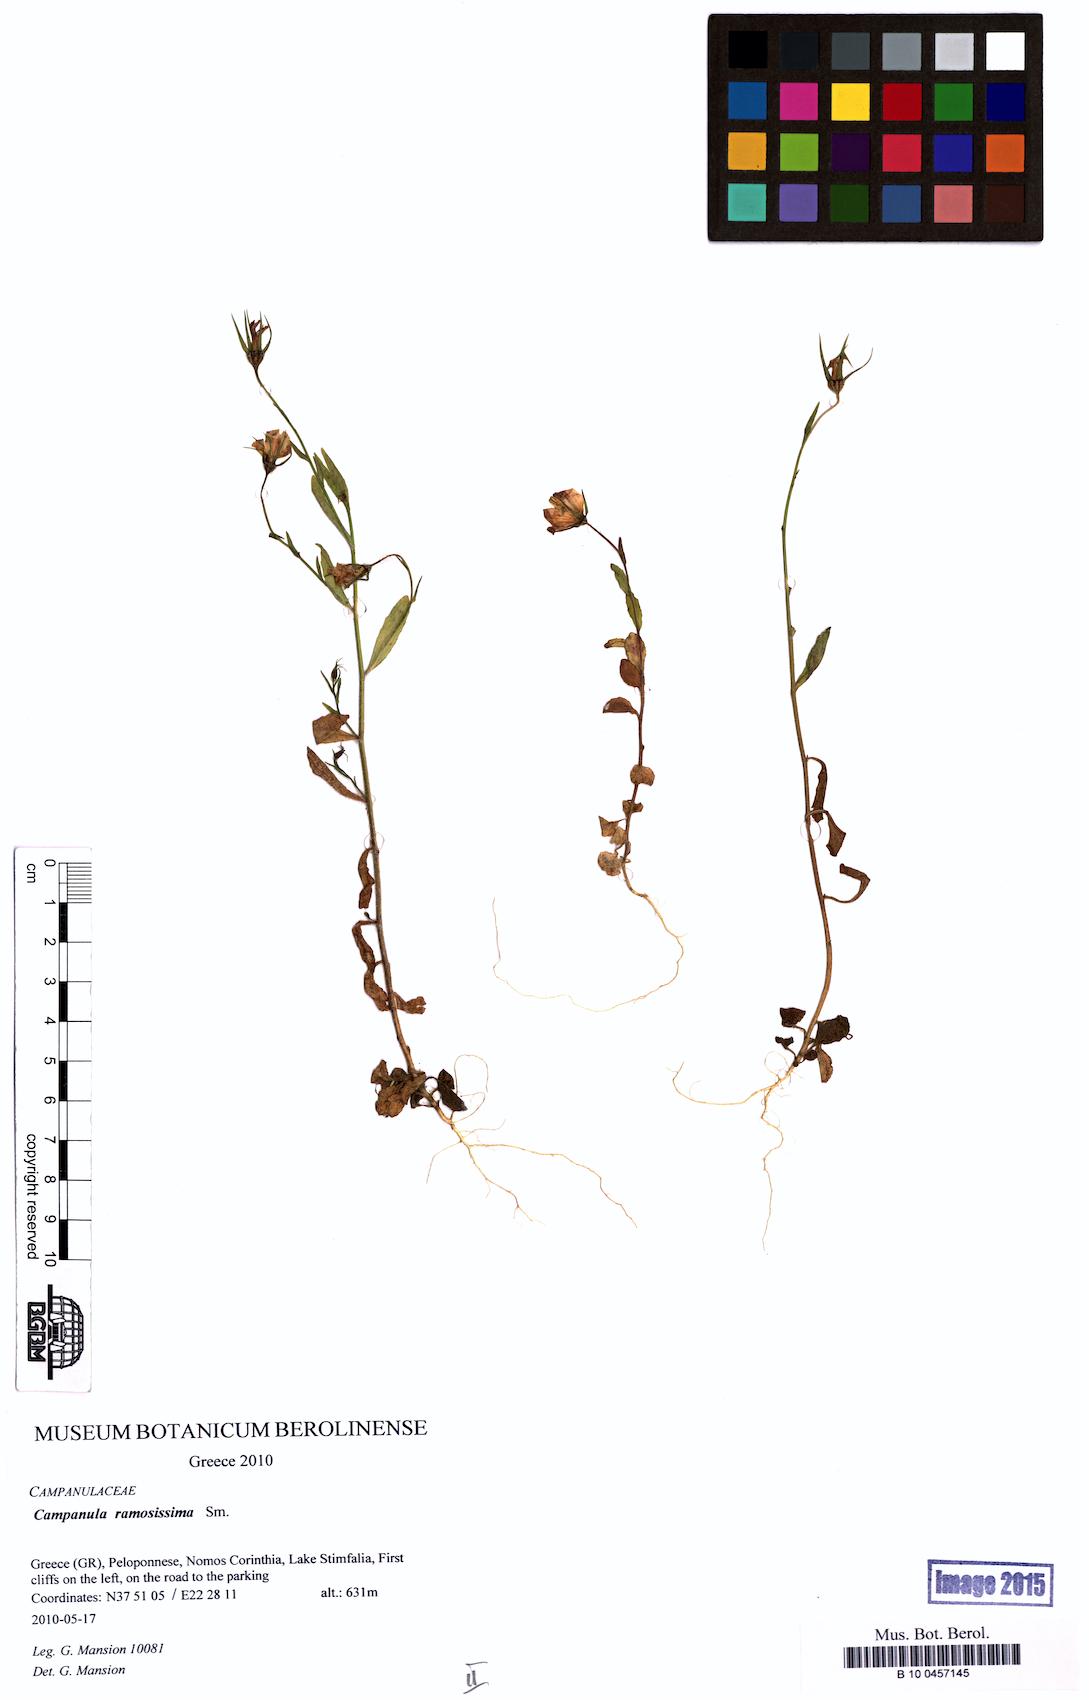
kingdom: Plantae
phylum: Tracheophyta
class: Magnoliopsida
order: Asterales
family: Campanulaceae
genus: Campanula
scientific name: Campanula ramosissima
